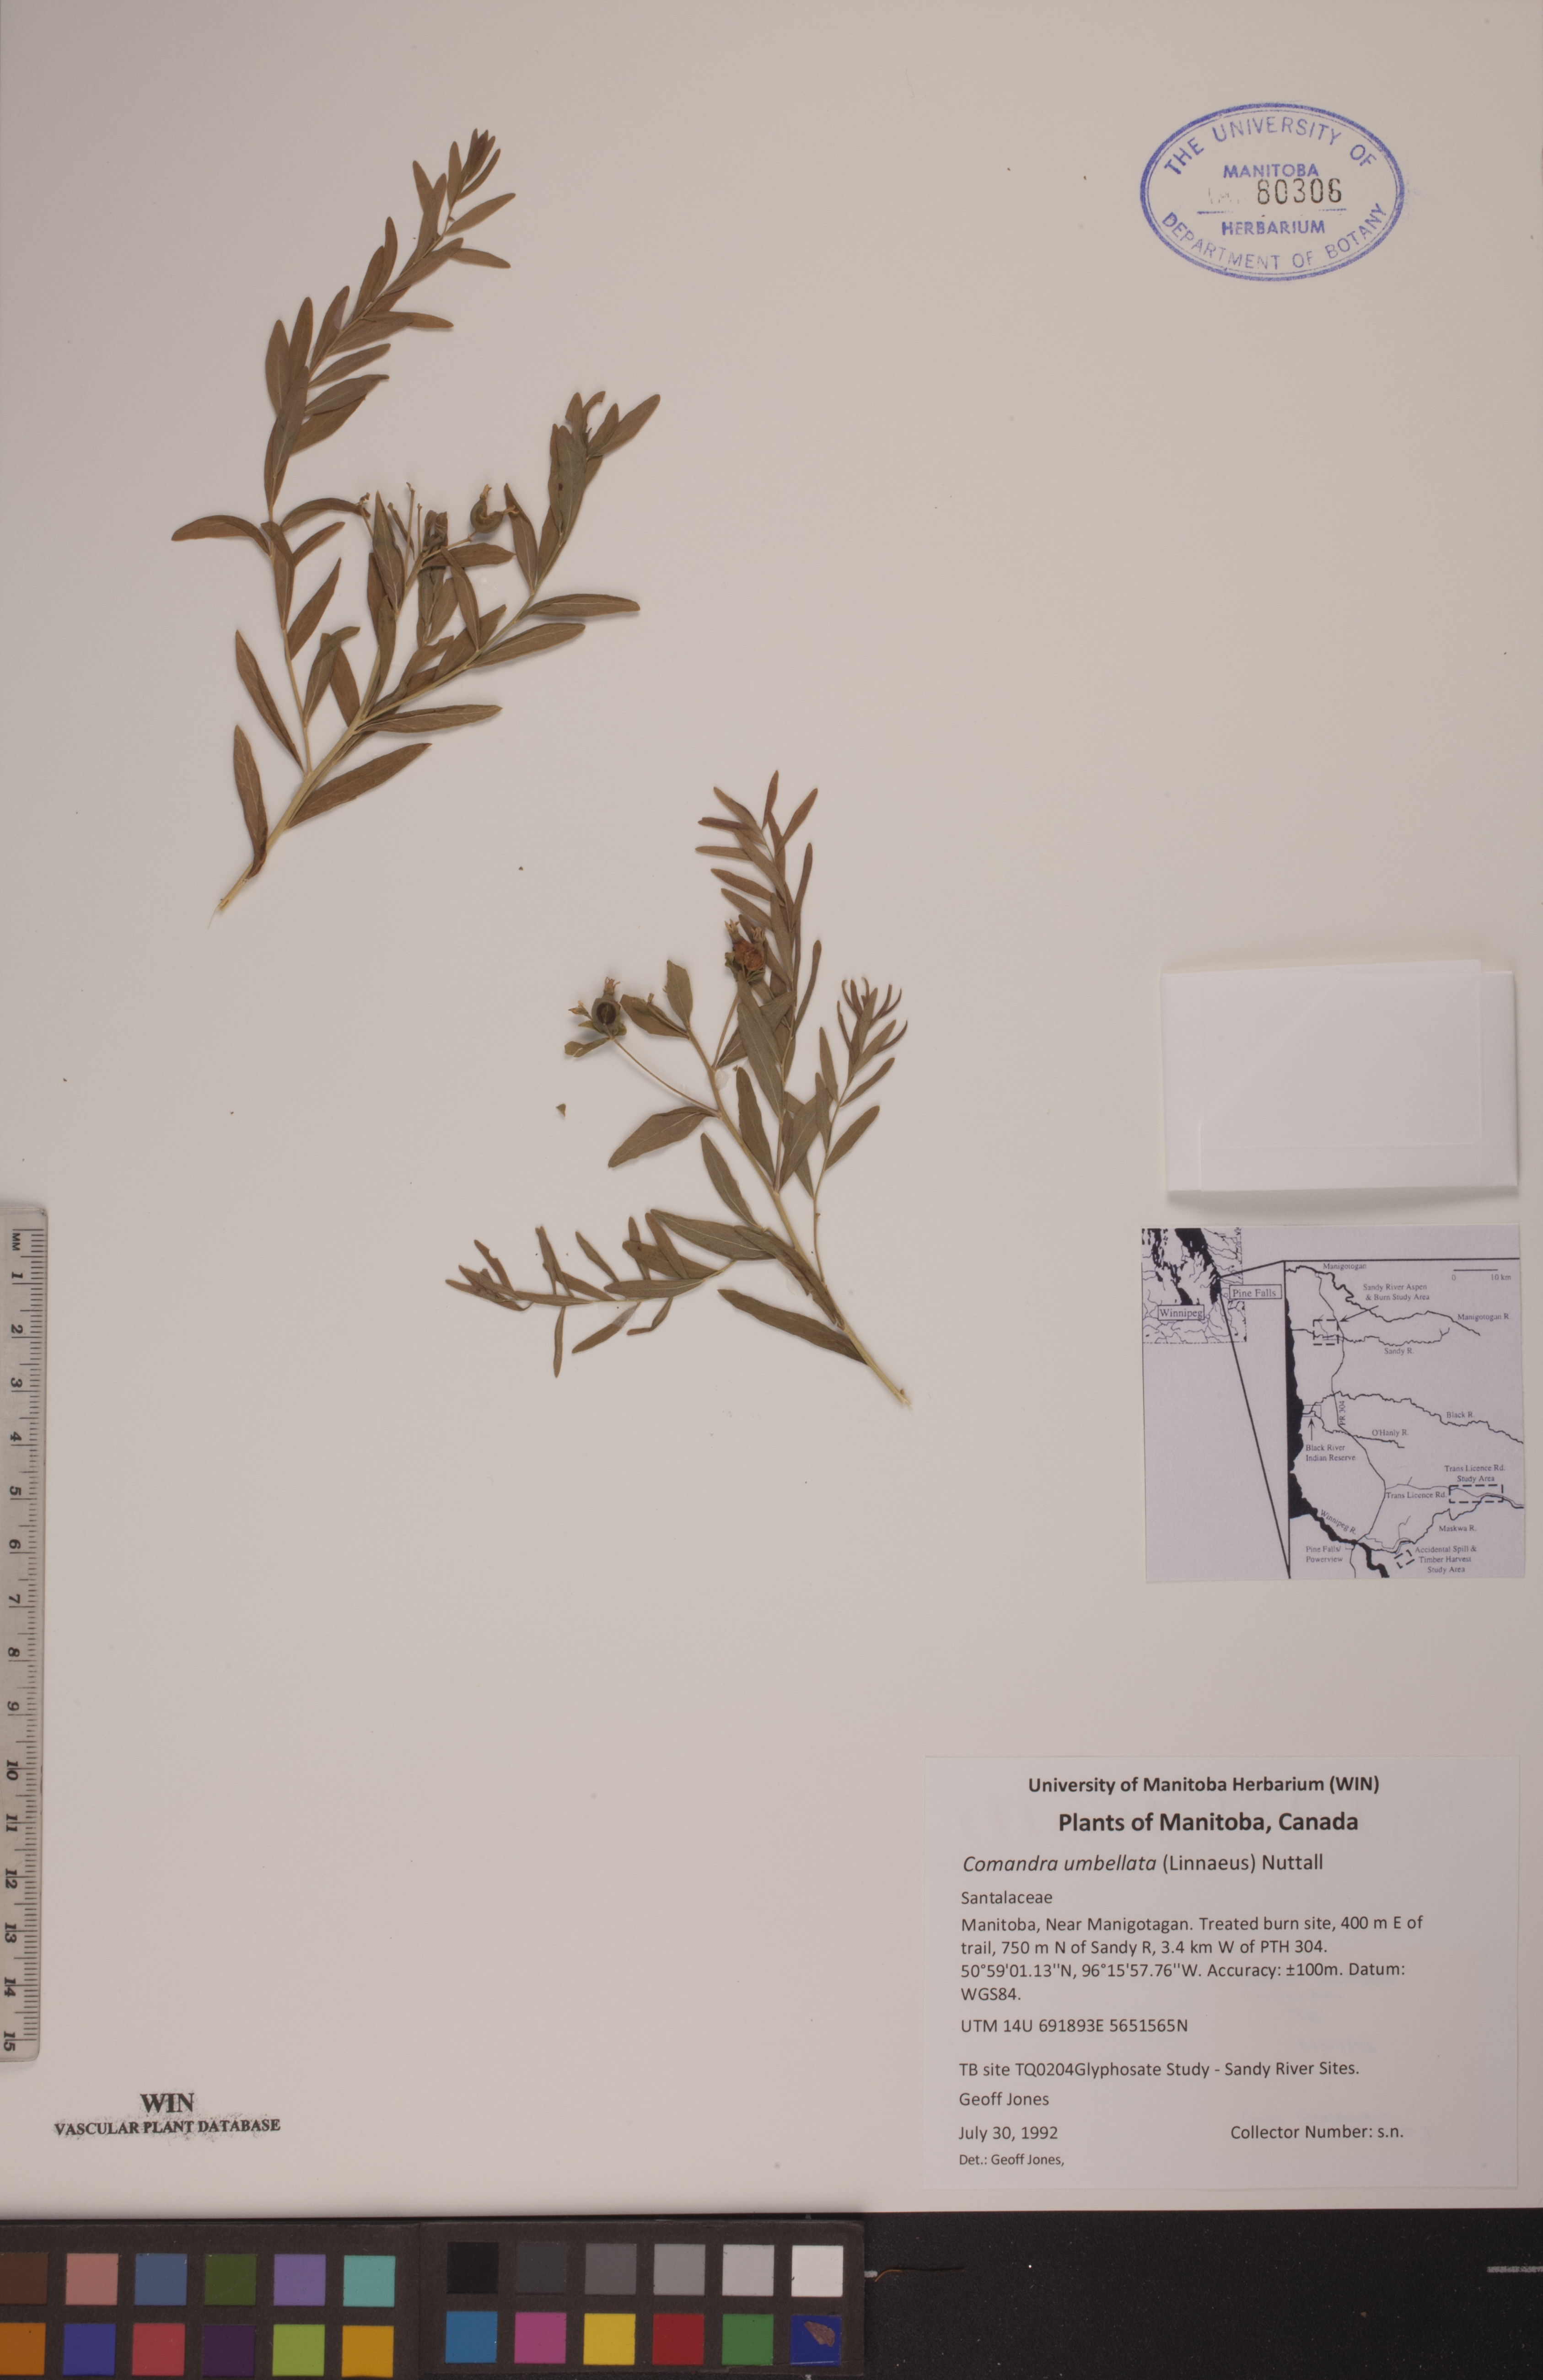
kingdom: Plantae
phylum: Tracheophyta
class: Magnoliopsida
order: Santalales
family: Comandraceae
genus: Comandra
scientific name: Comandra umbellata
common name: Bastard toadflax
